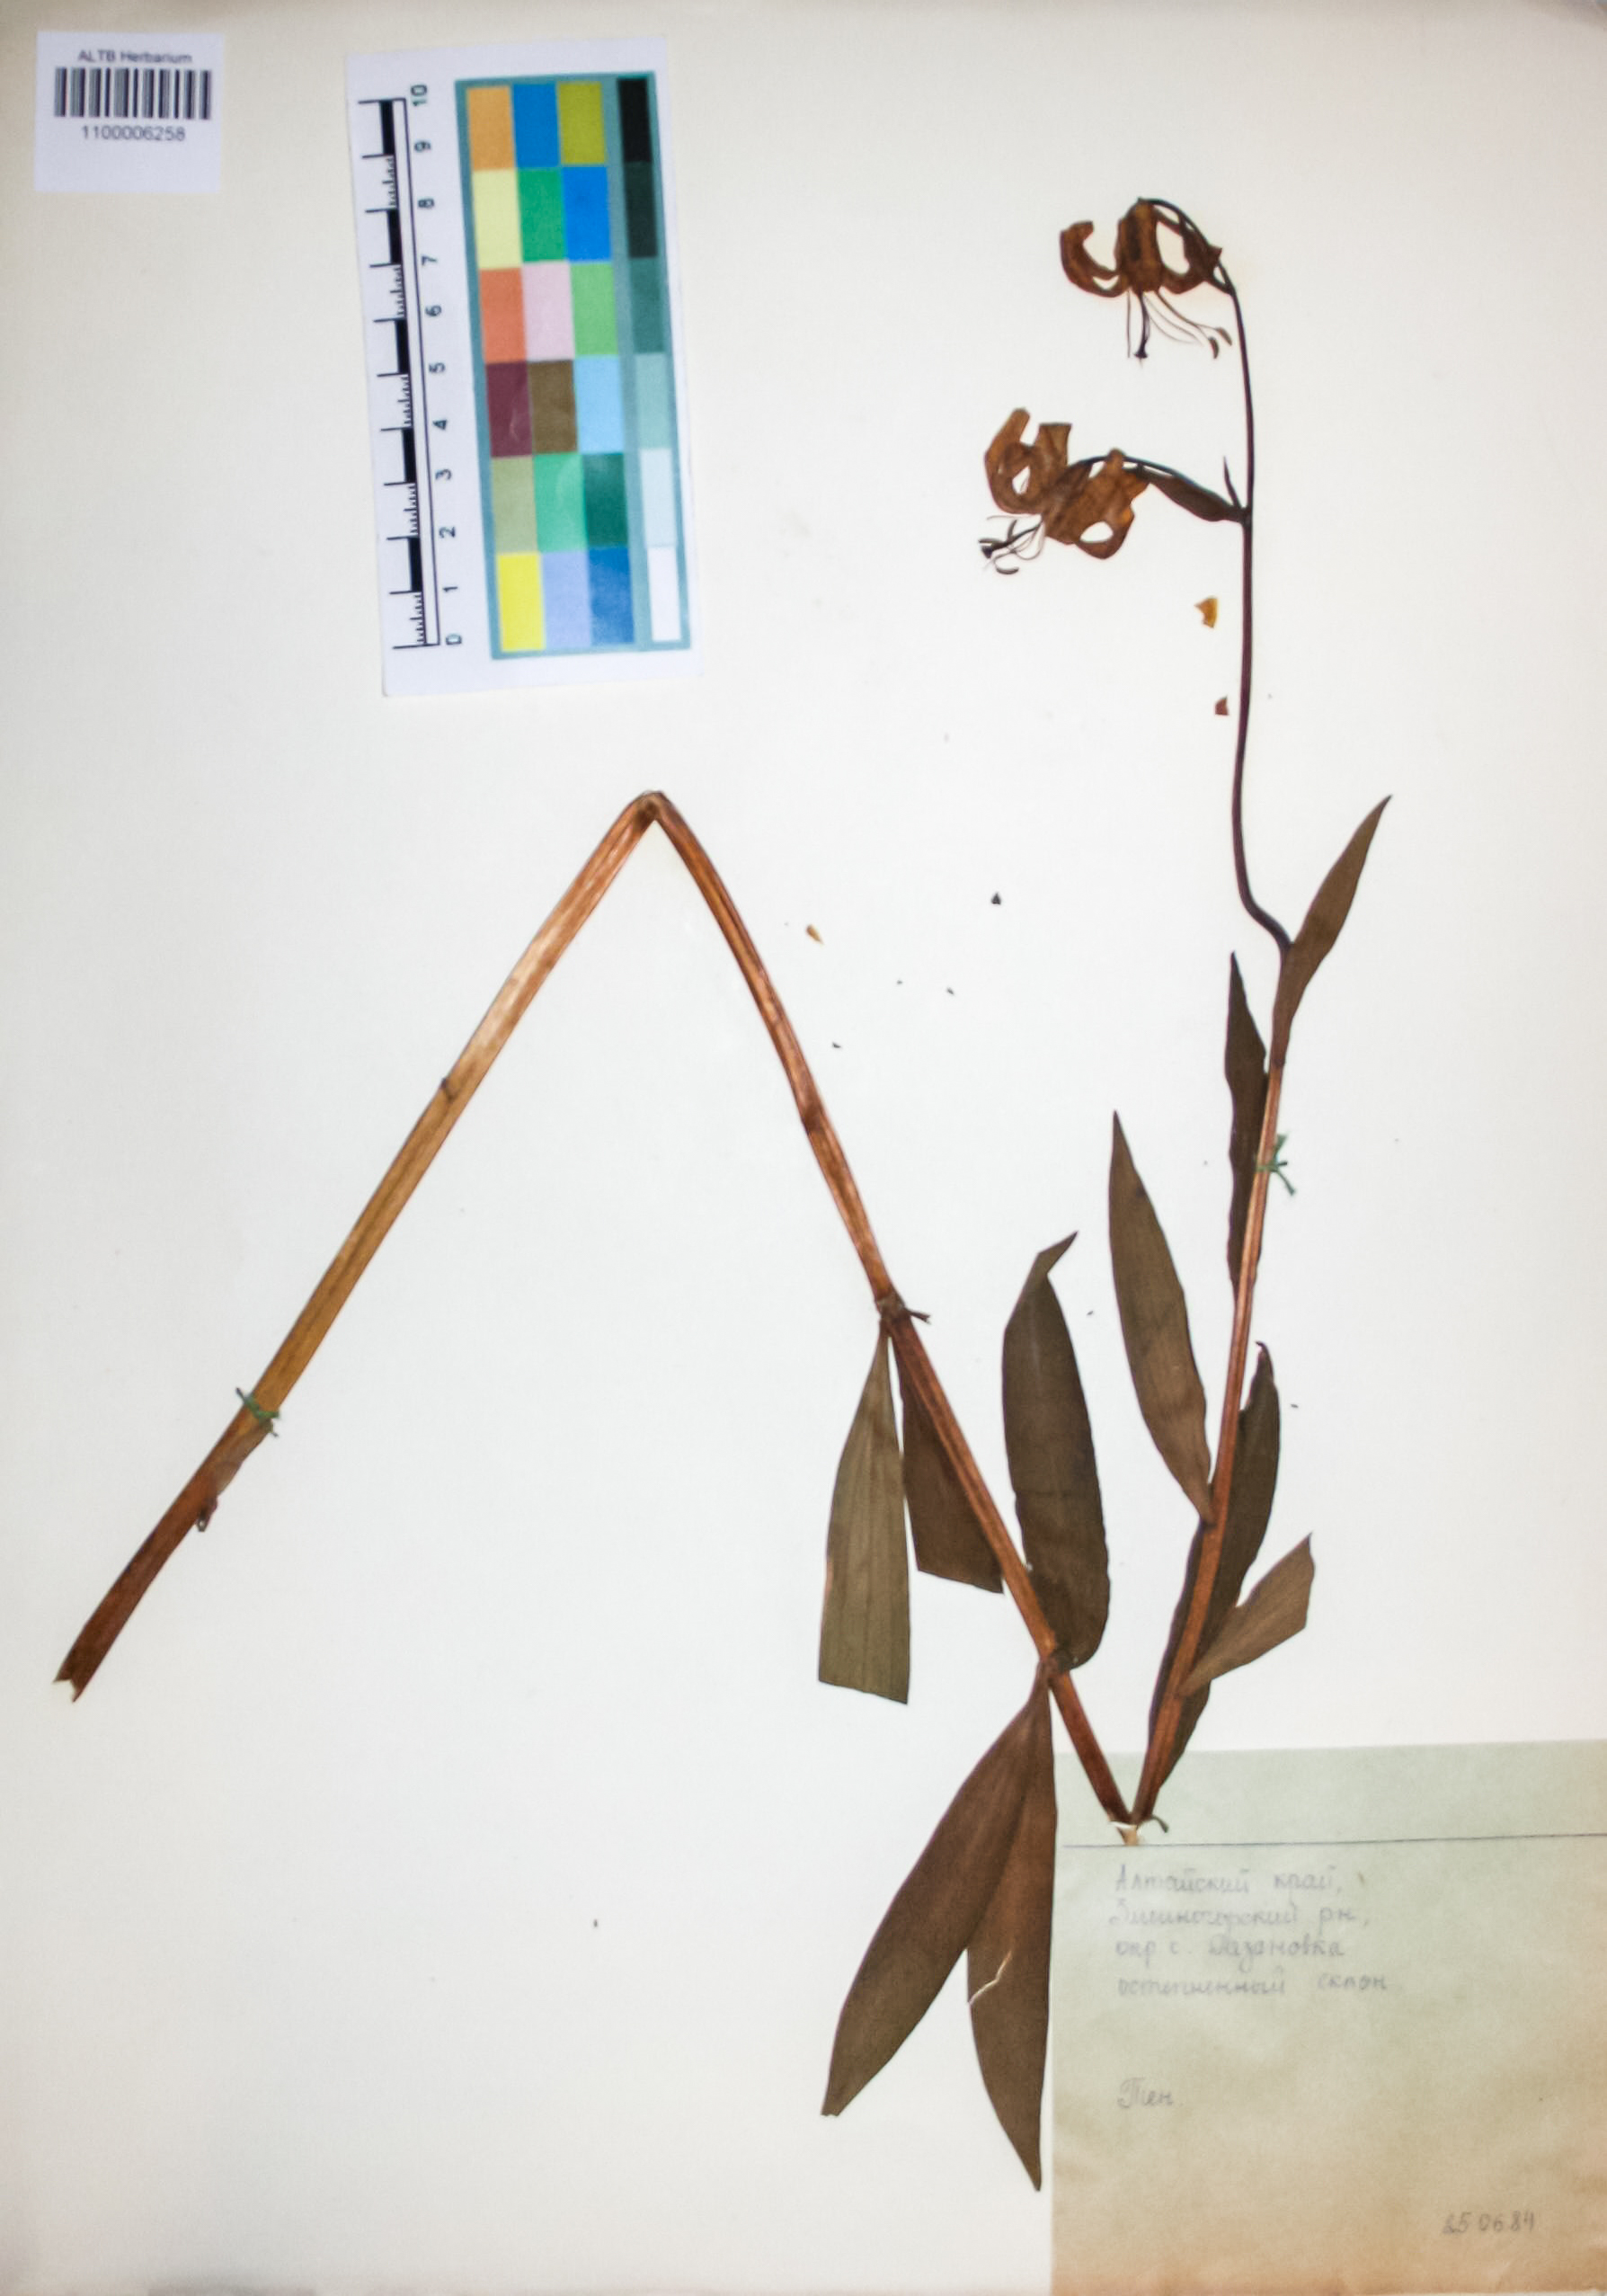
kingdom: Plantae
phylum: Tracheophyta
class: Liliopsida
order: Liliales
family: Liliaceae
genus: Lilium
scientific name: Lilium martagon
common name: Martagon lily
